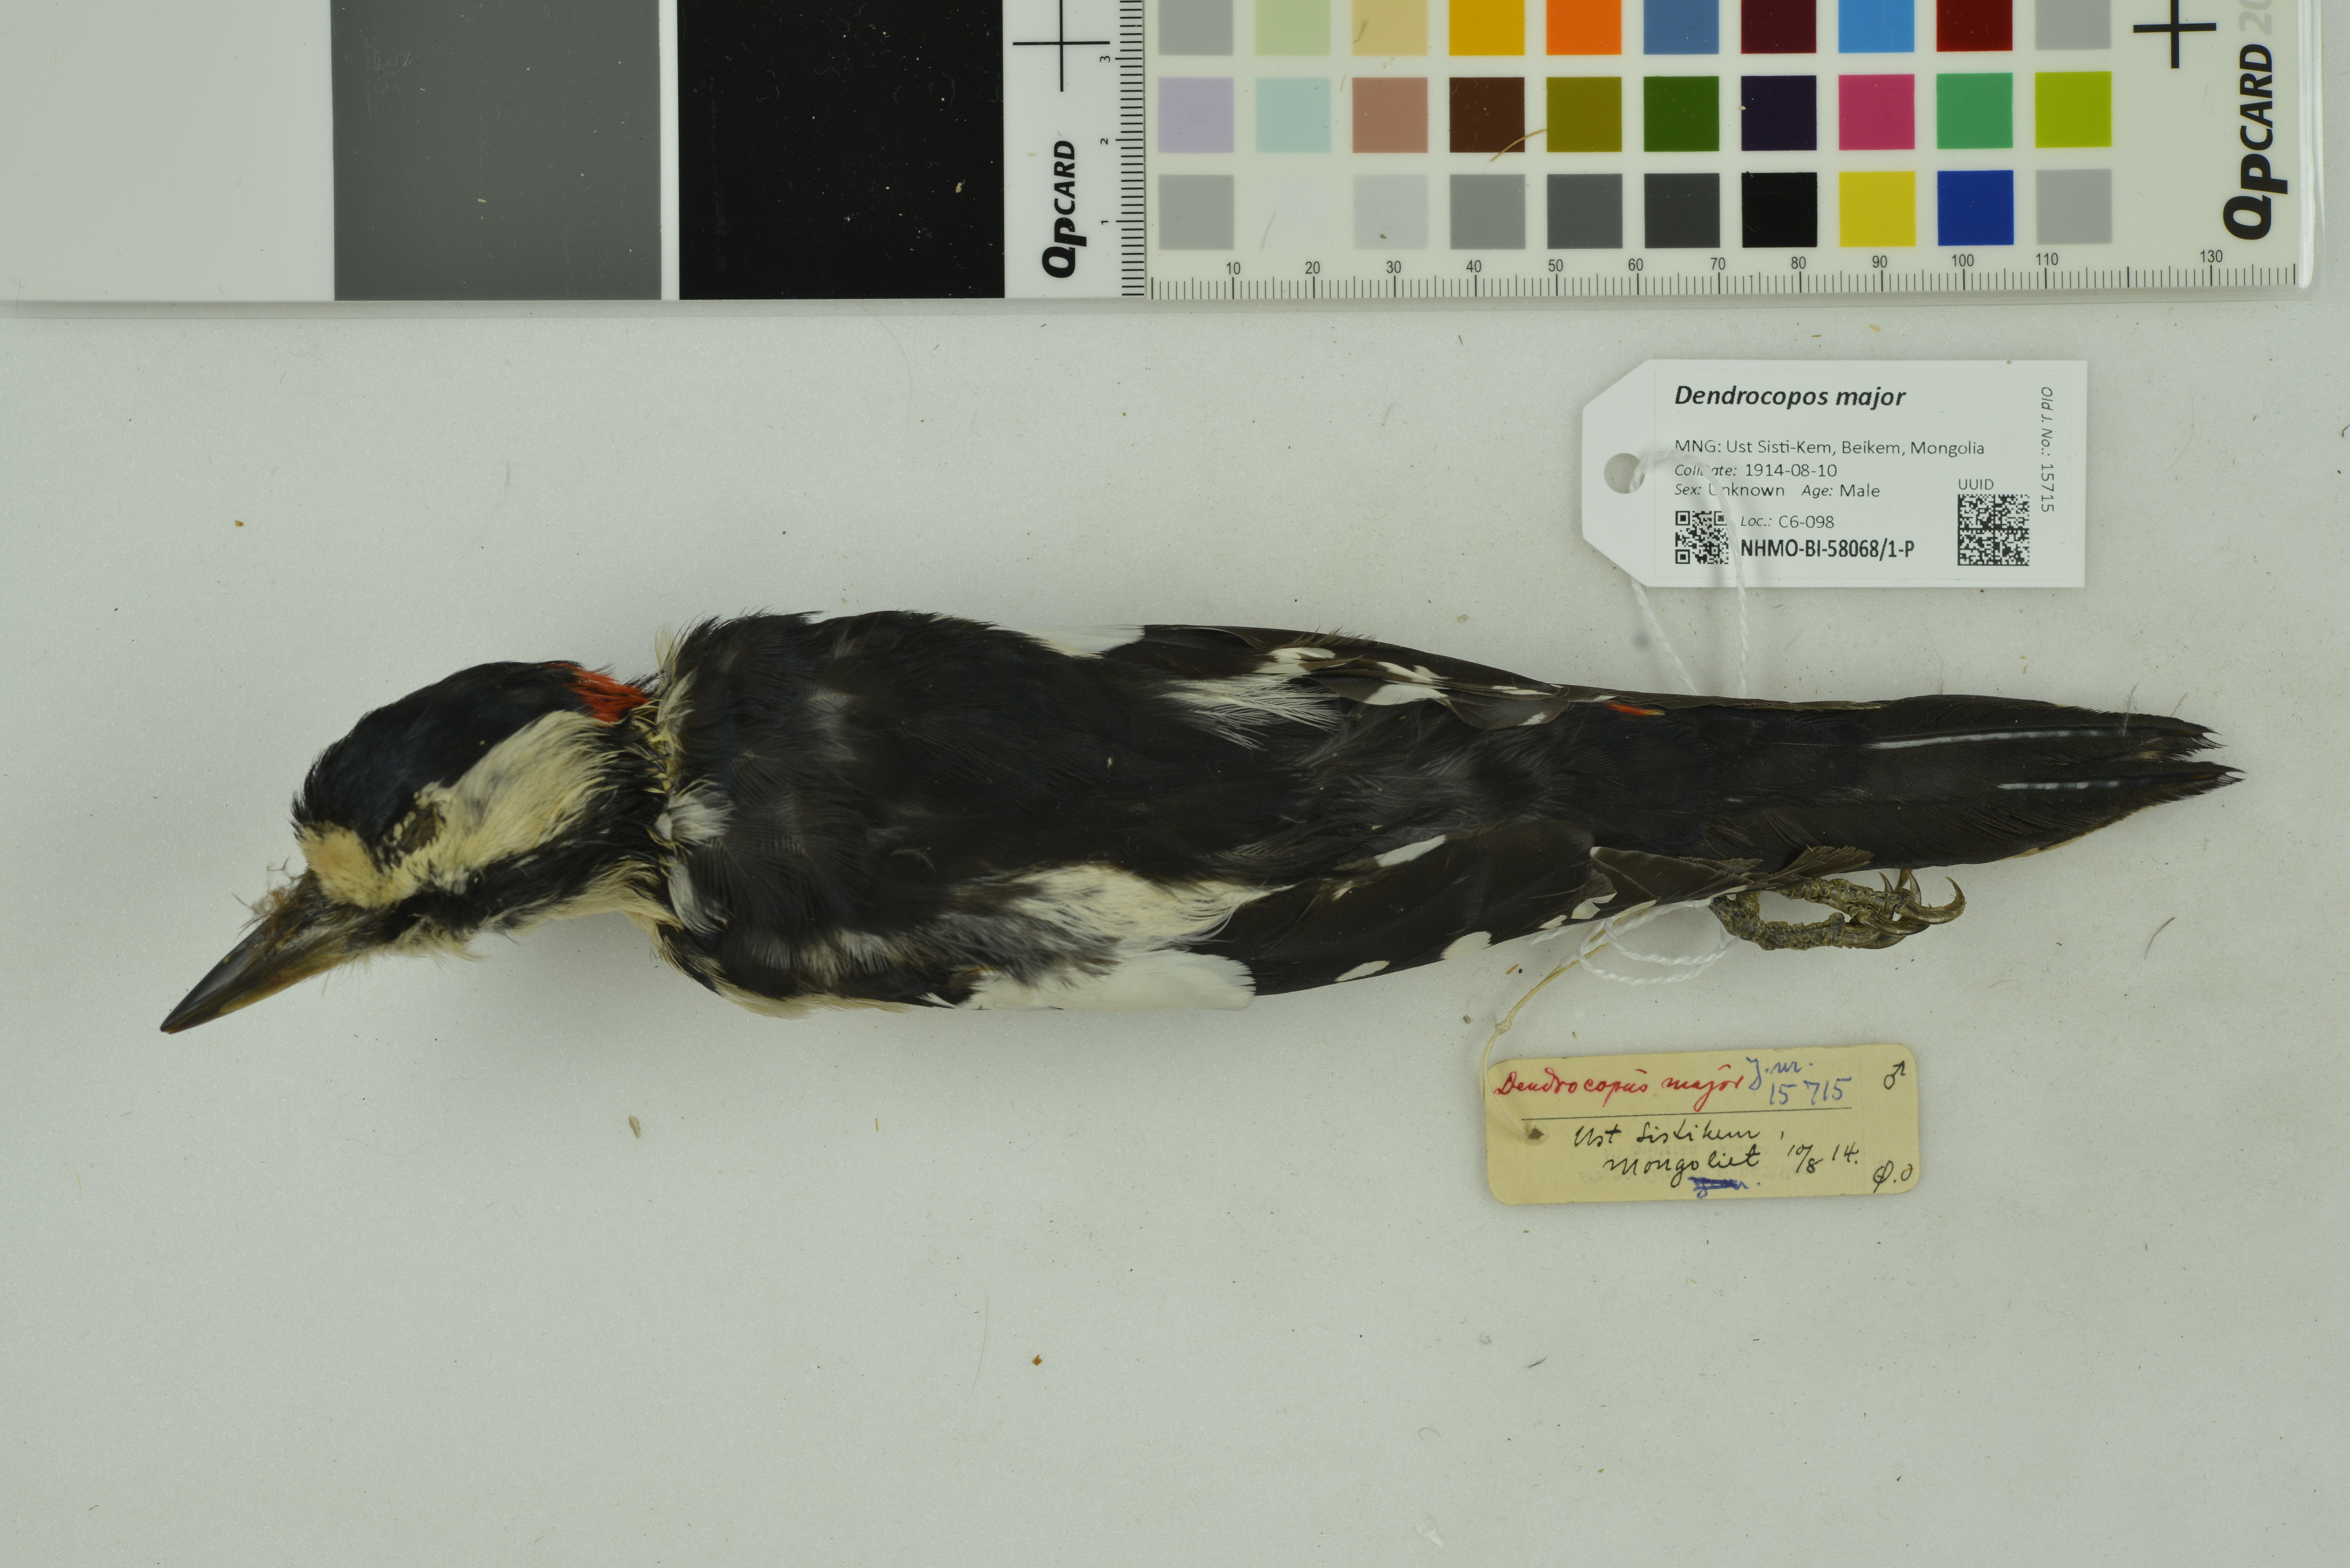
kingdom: Animalia
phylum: Chordata
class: Aves
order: Piciformes
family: Picidae
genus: Dendrocopos
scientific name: Dendrocopos major
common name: Great spotted woodpecker
